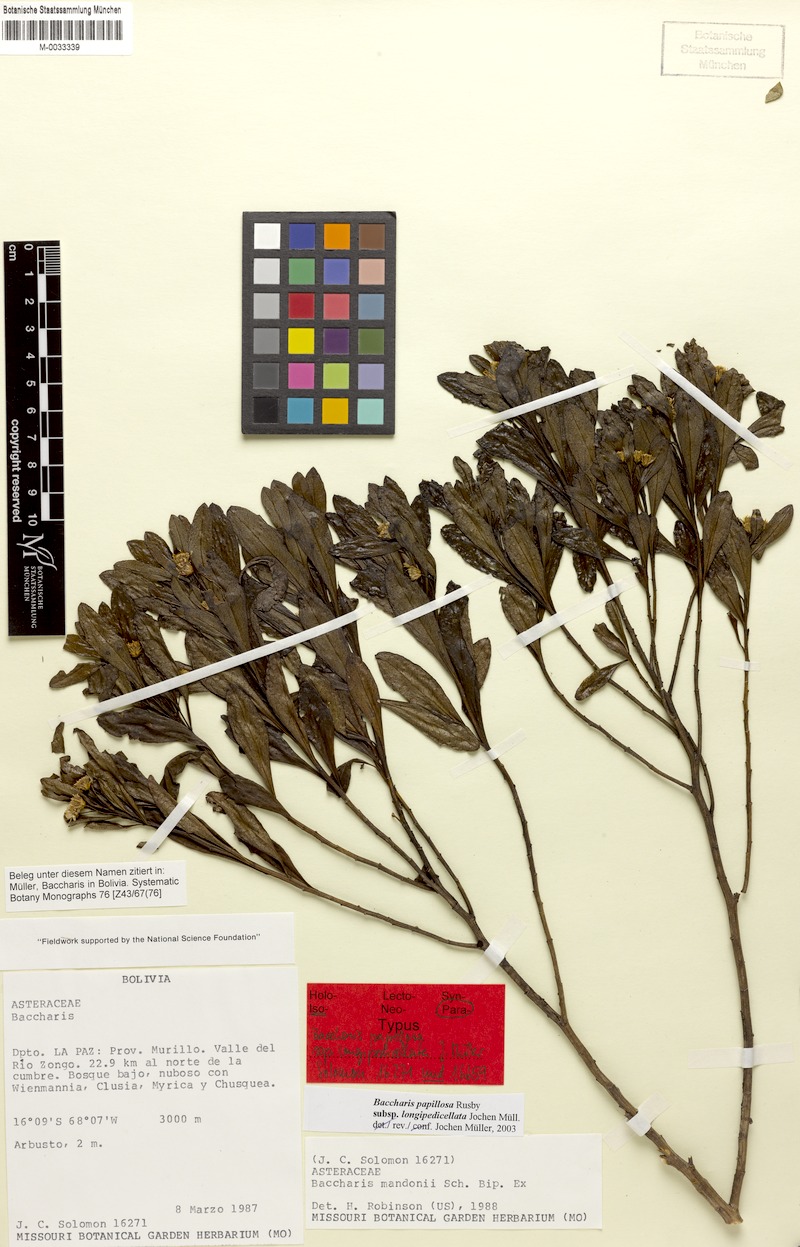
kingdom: Plantae
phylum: Tracheophyta
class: Magnoliopsida
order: Asterales
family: Asteraceae
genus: Baccharis
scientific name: Baccharis longipedicellata
